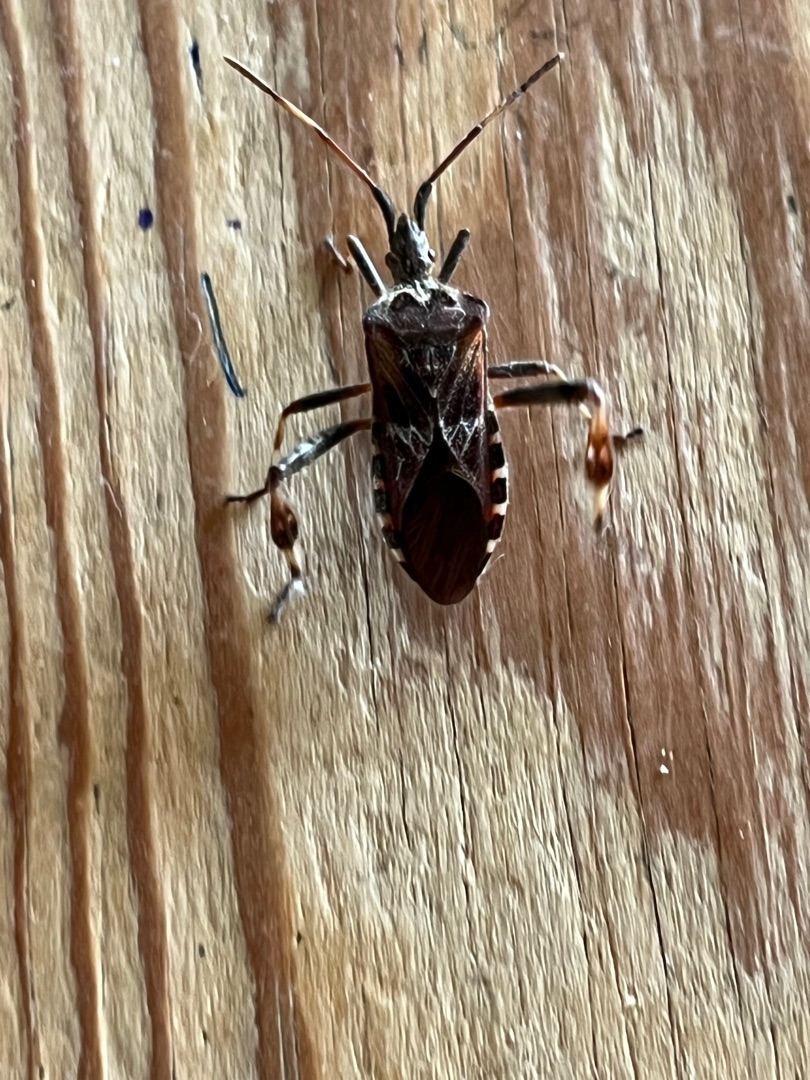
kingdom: Animalia
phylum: Arthropoda
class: Insecta
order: Hemiptera
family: Coreidae
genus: Leptoglossus
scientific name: Leptoglossus occidentalis
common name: Amerikansk fyrretæge
